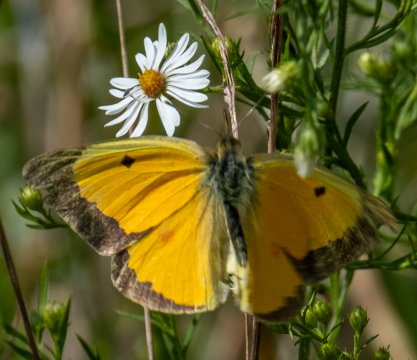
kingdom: Animalia
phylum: Arthropoda
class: Insecta
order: Lepidoptera
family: Pieridae
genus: Colias
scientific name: Colias eurytheme
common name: Orange Sulphur
